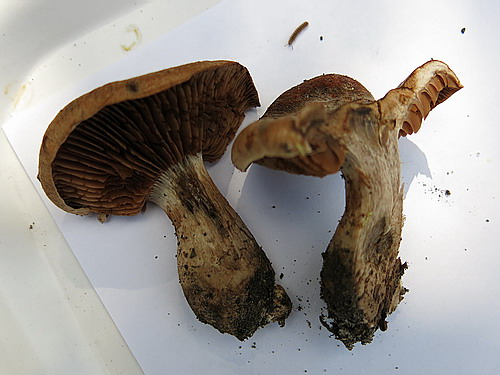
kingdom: Fungi
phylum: Basidiomycota
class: Agaricomycetes
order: Agaricales
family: Cortinariaceae
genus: Cortinarius
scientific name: Cortinarius
